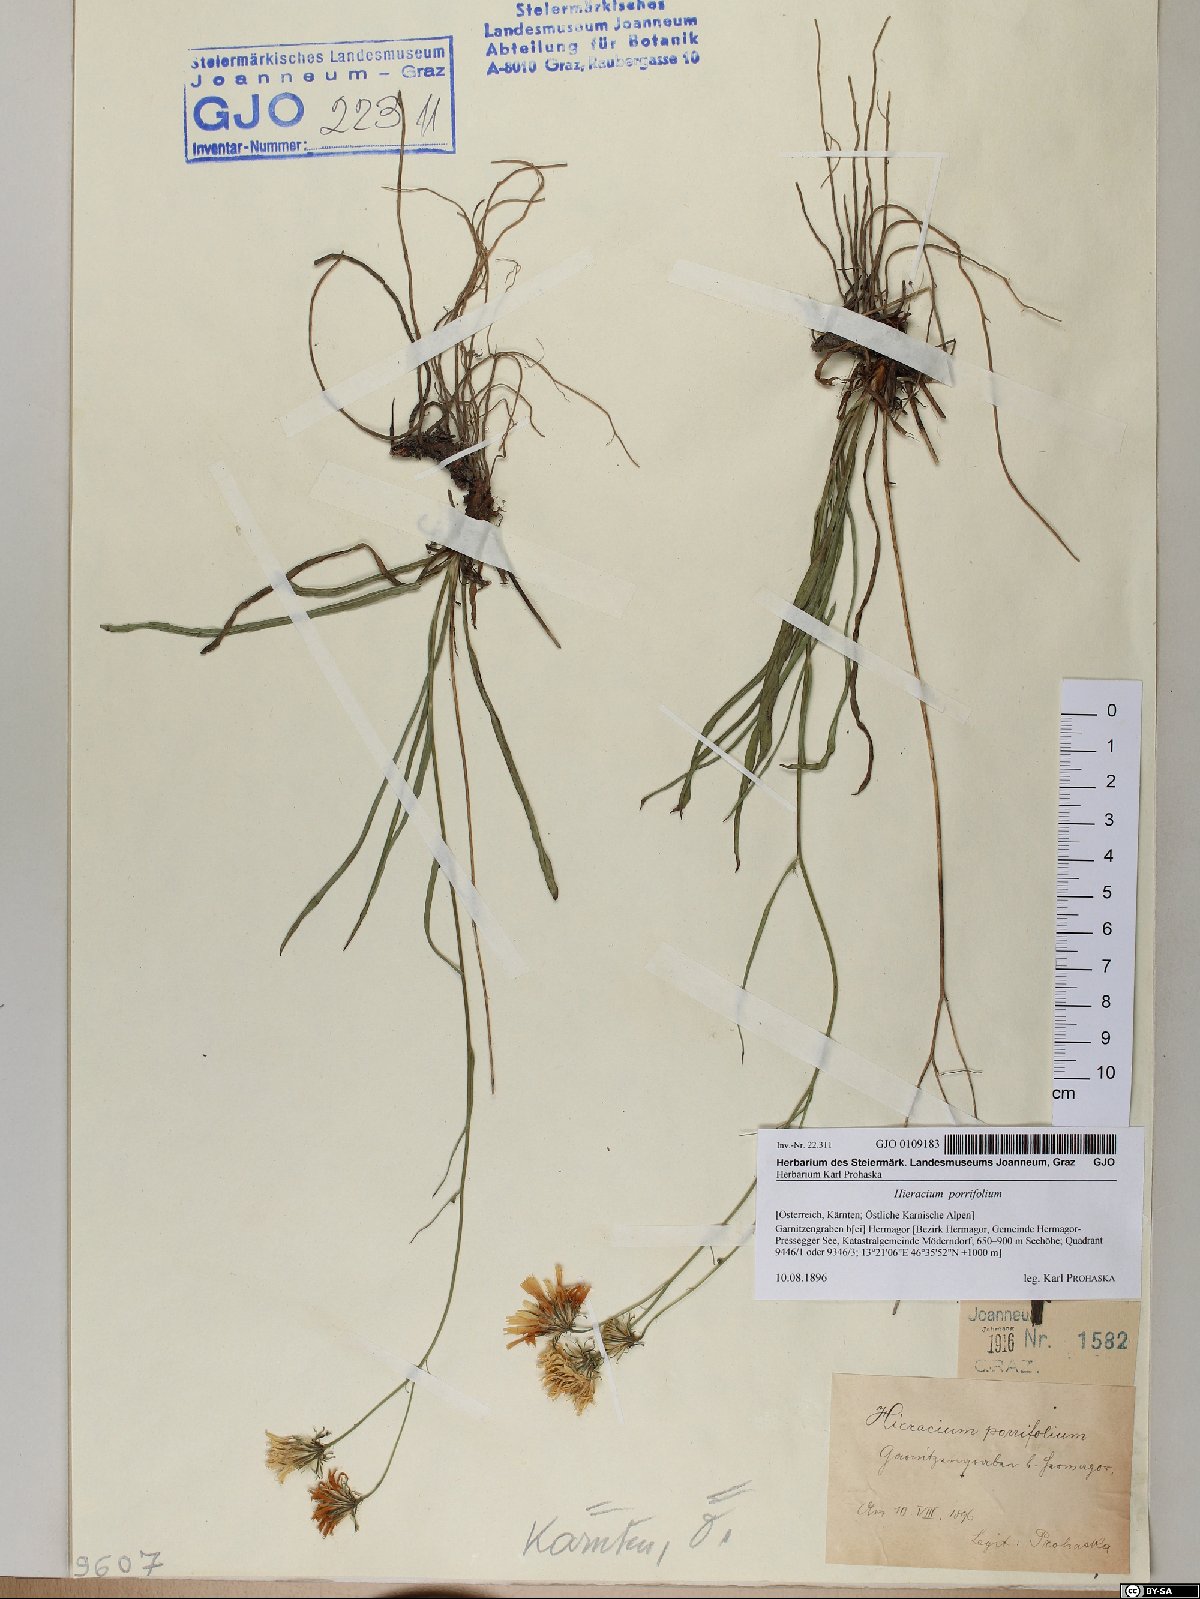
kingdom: Plantae
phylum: Tracheophyta
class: Magnoliopsida
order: Asterales
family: Asteraceae
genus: Hieracium
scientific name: Hieracium porrifolium
